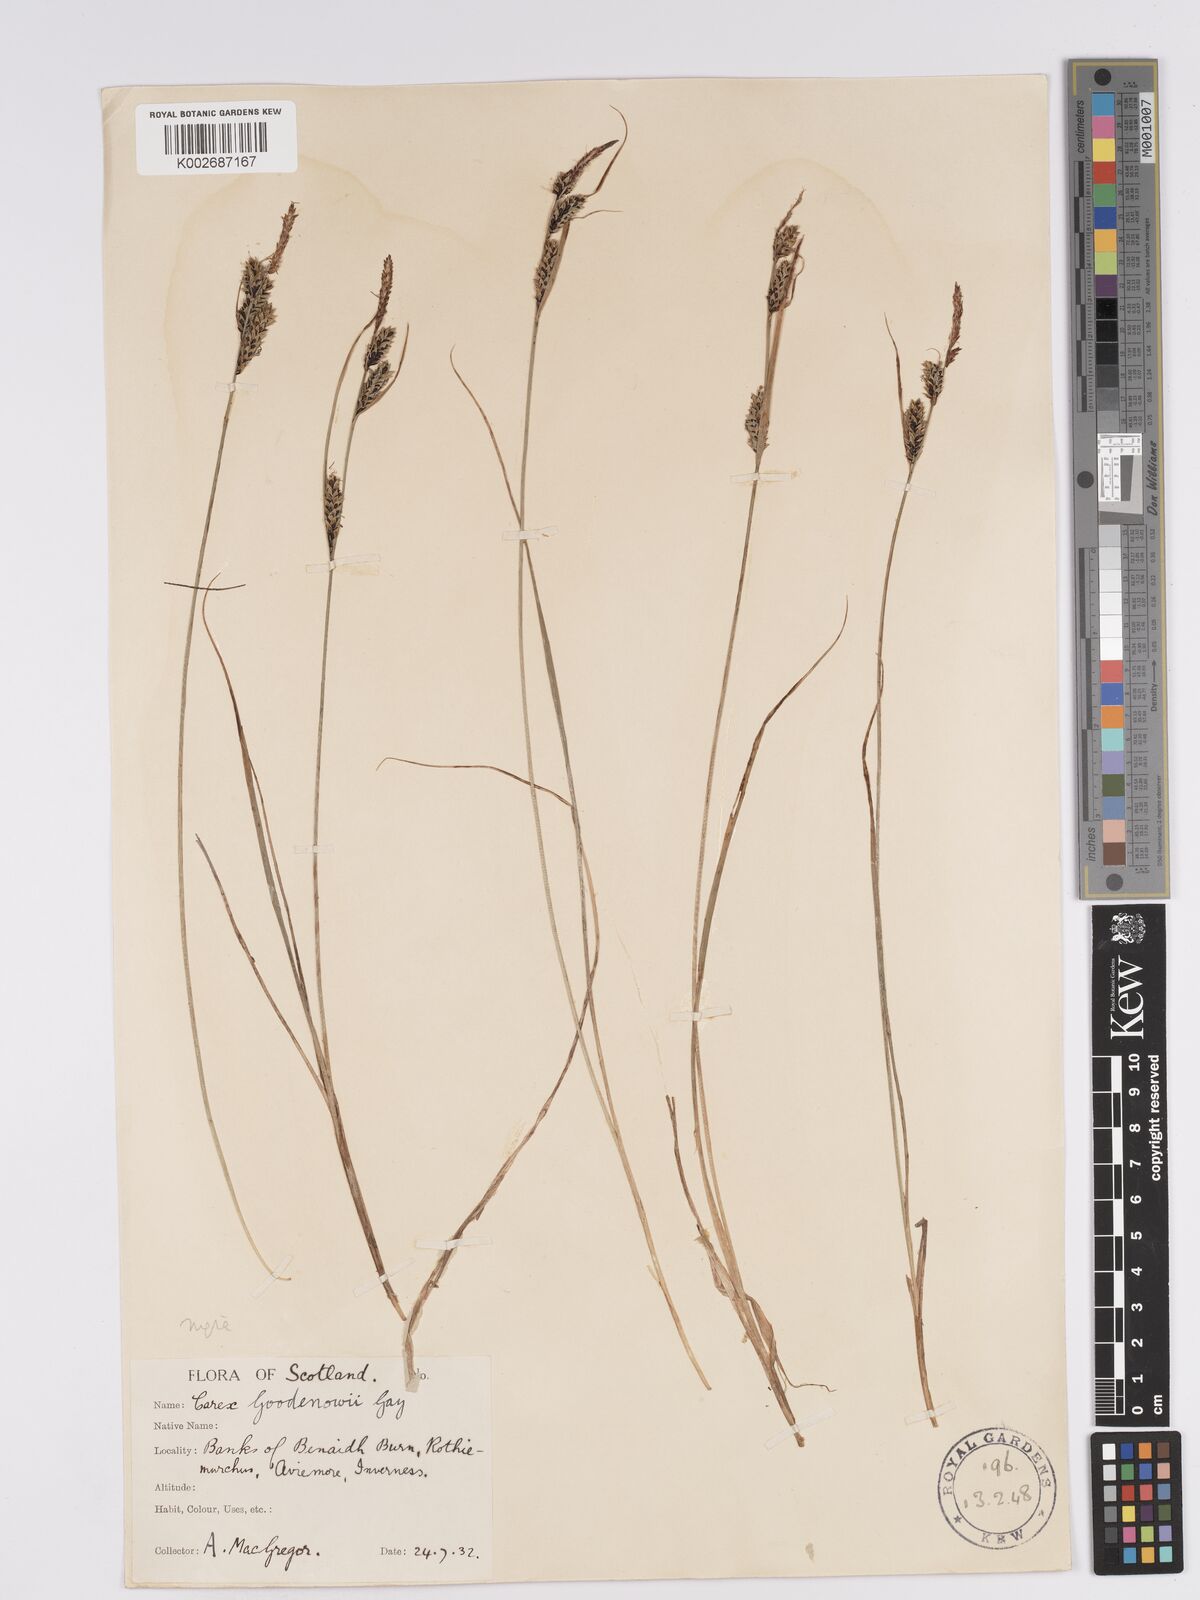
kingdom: Plantae
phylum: Tracheophyta
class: Liliopsida
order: Poales
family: Cyperaceae
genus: Carex
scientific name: Carex nigra
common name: Common sedge
